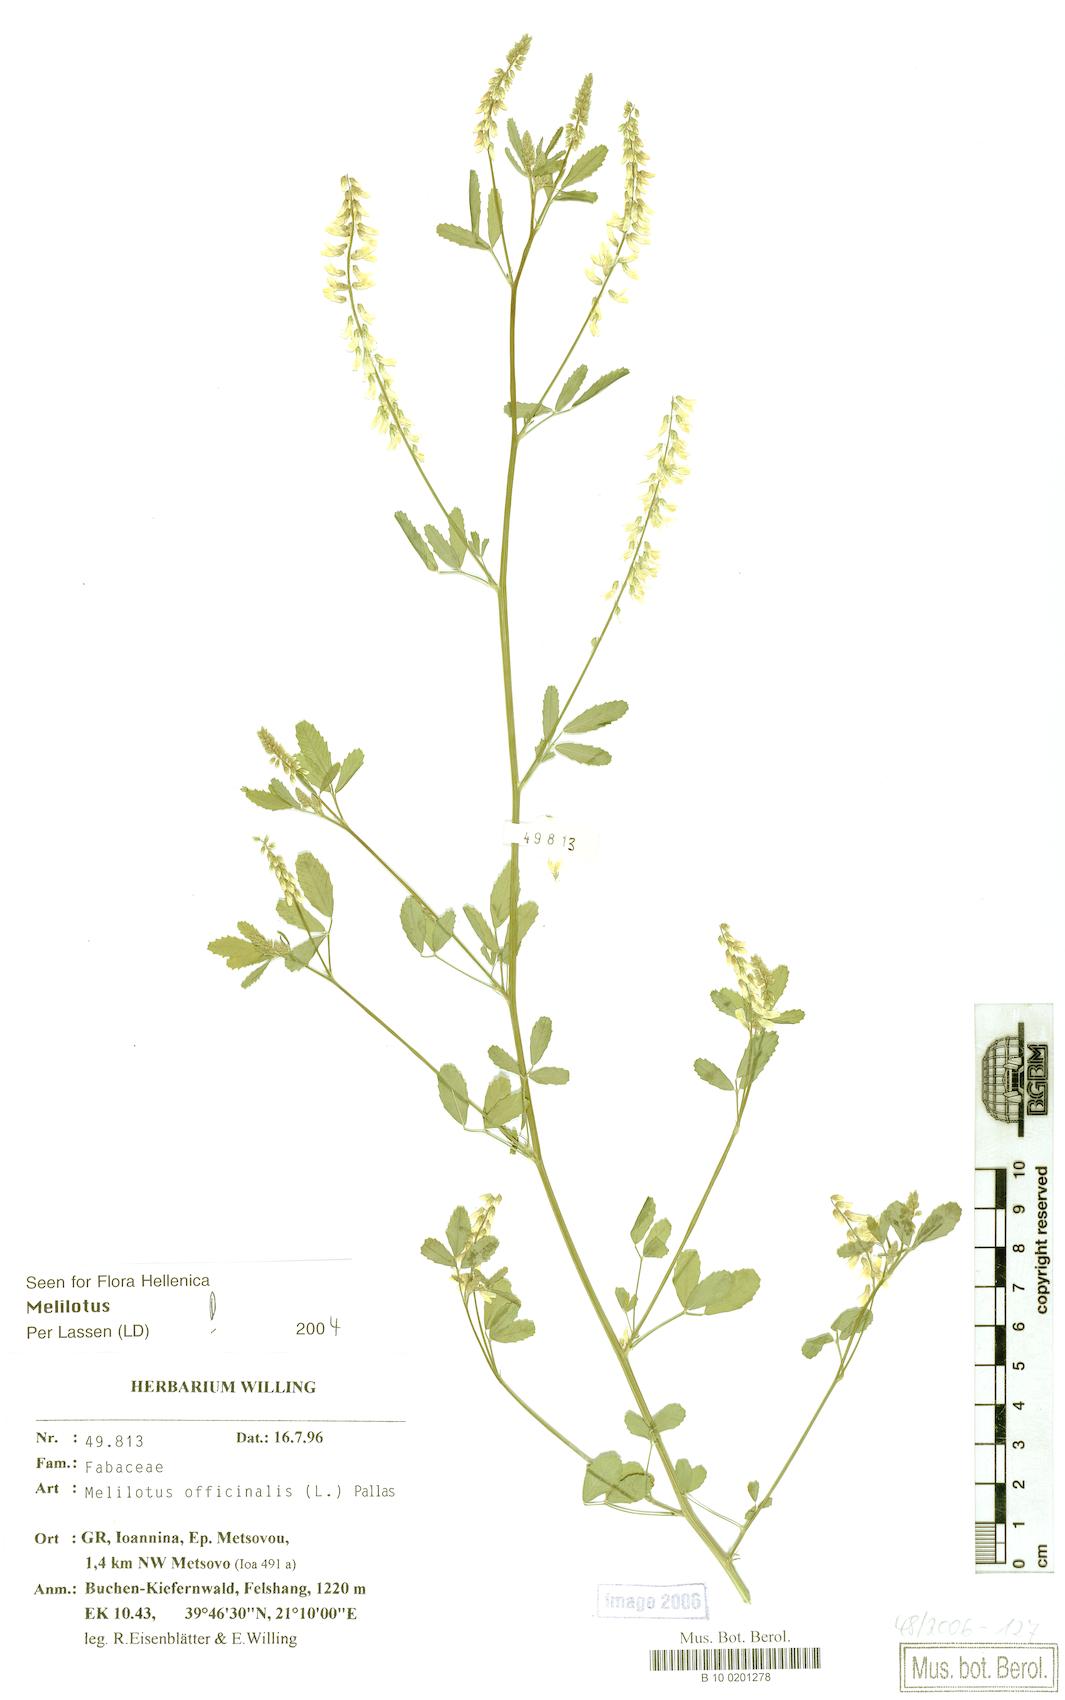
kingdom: Plantae
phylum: Tracheophyta
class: Magnoliopsida
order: Fabales
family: Fabaceae
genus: Melilotus
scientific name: Melilotus officinalis
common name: Sweetclover
